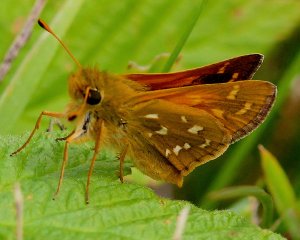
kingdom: Animalia
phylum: Arthropoda
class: Insecta
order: Lepidoptera
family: Hesperiidae
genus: Hesperia
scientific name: Hesperia comma
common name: Common Branded Skipper
